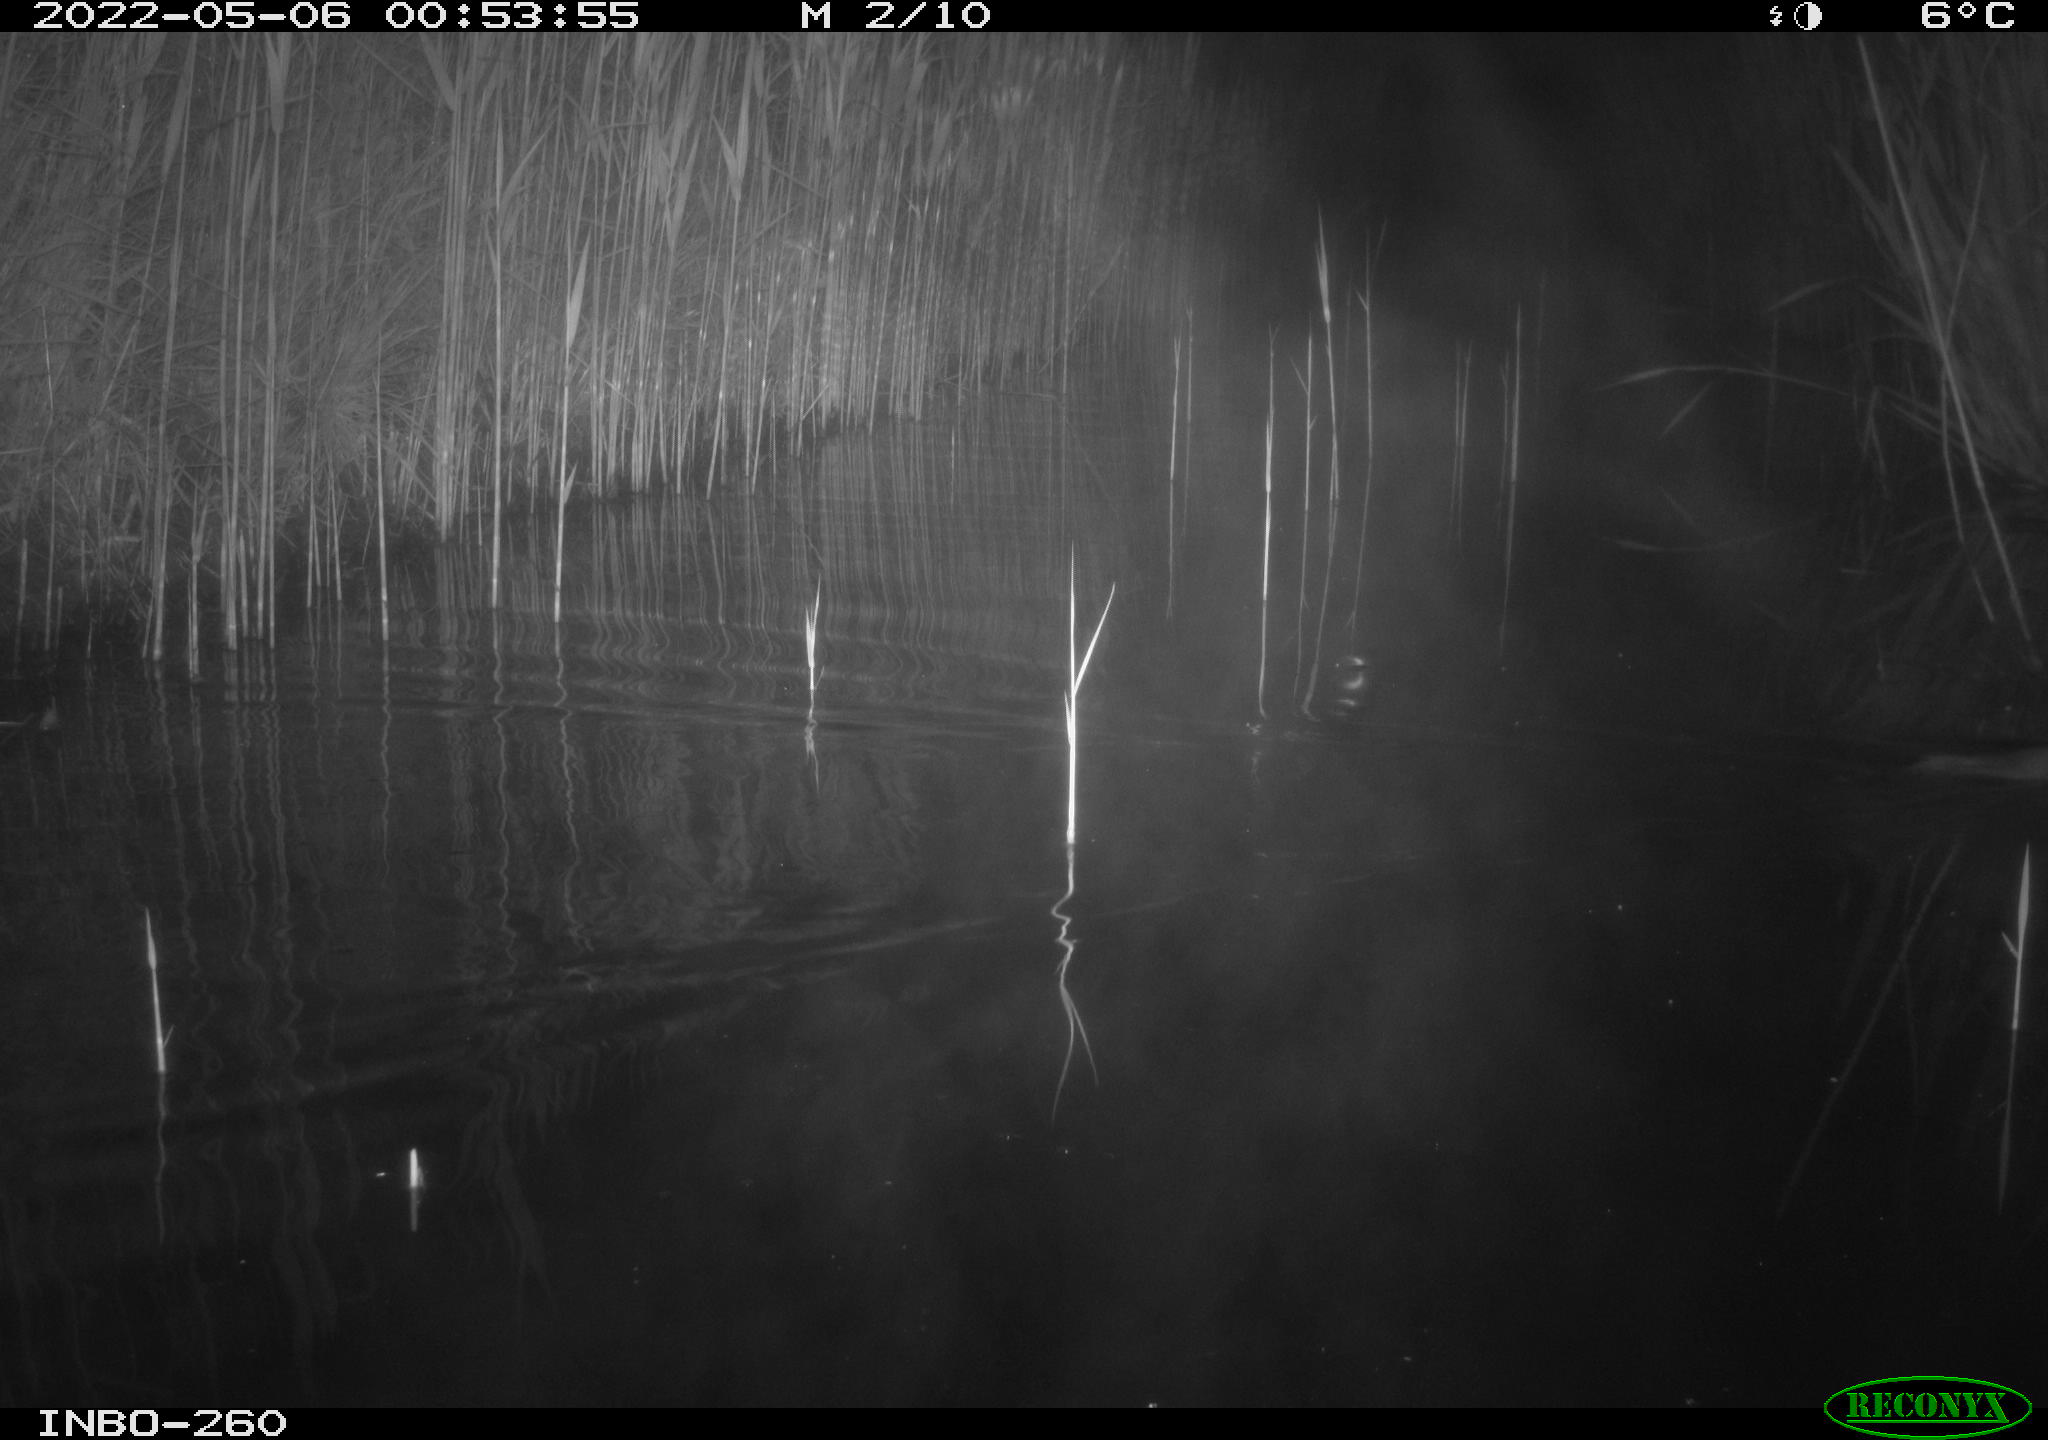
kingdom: Animalia
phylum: Chordata
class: Mammalia
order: Rodentia
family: Muridae
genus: Rattus
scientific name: Rattus norvegicus
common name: Brown rat
